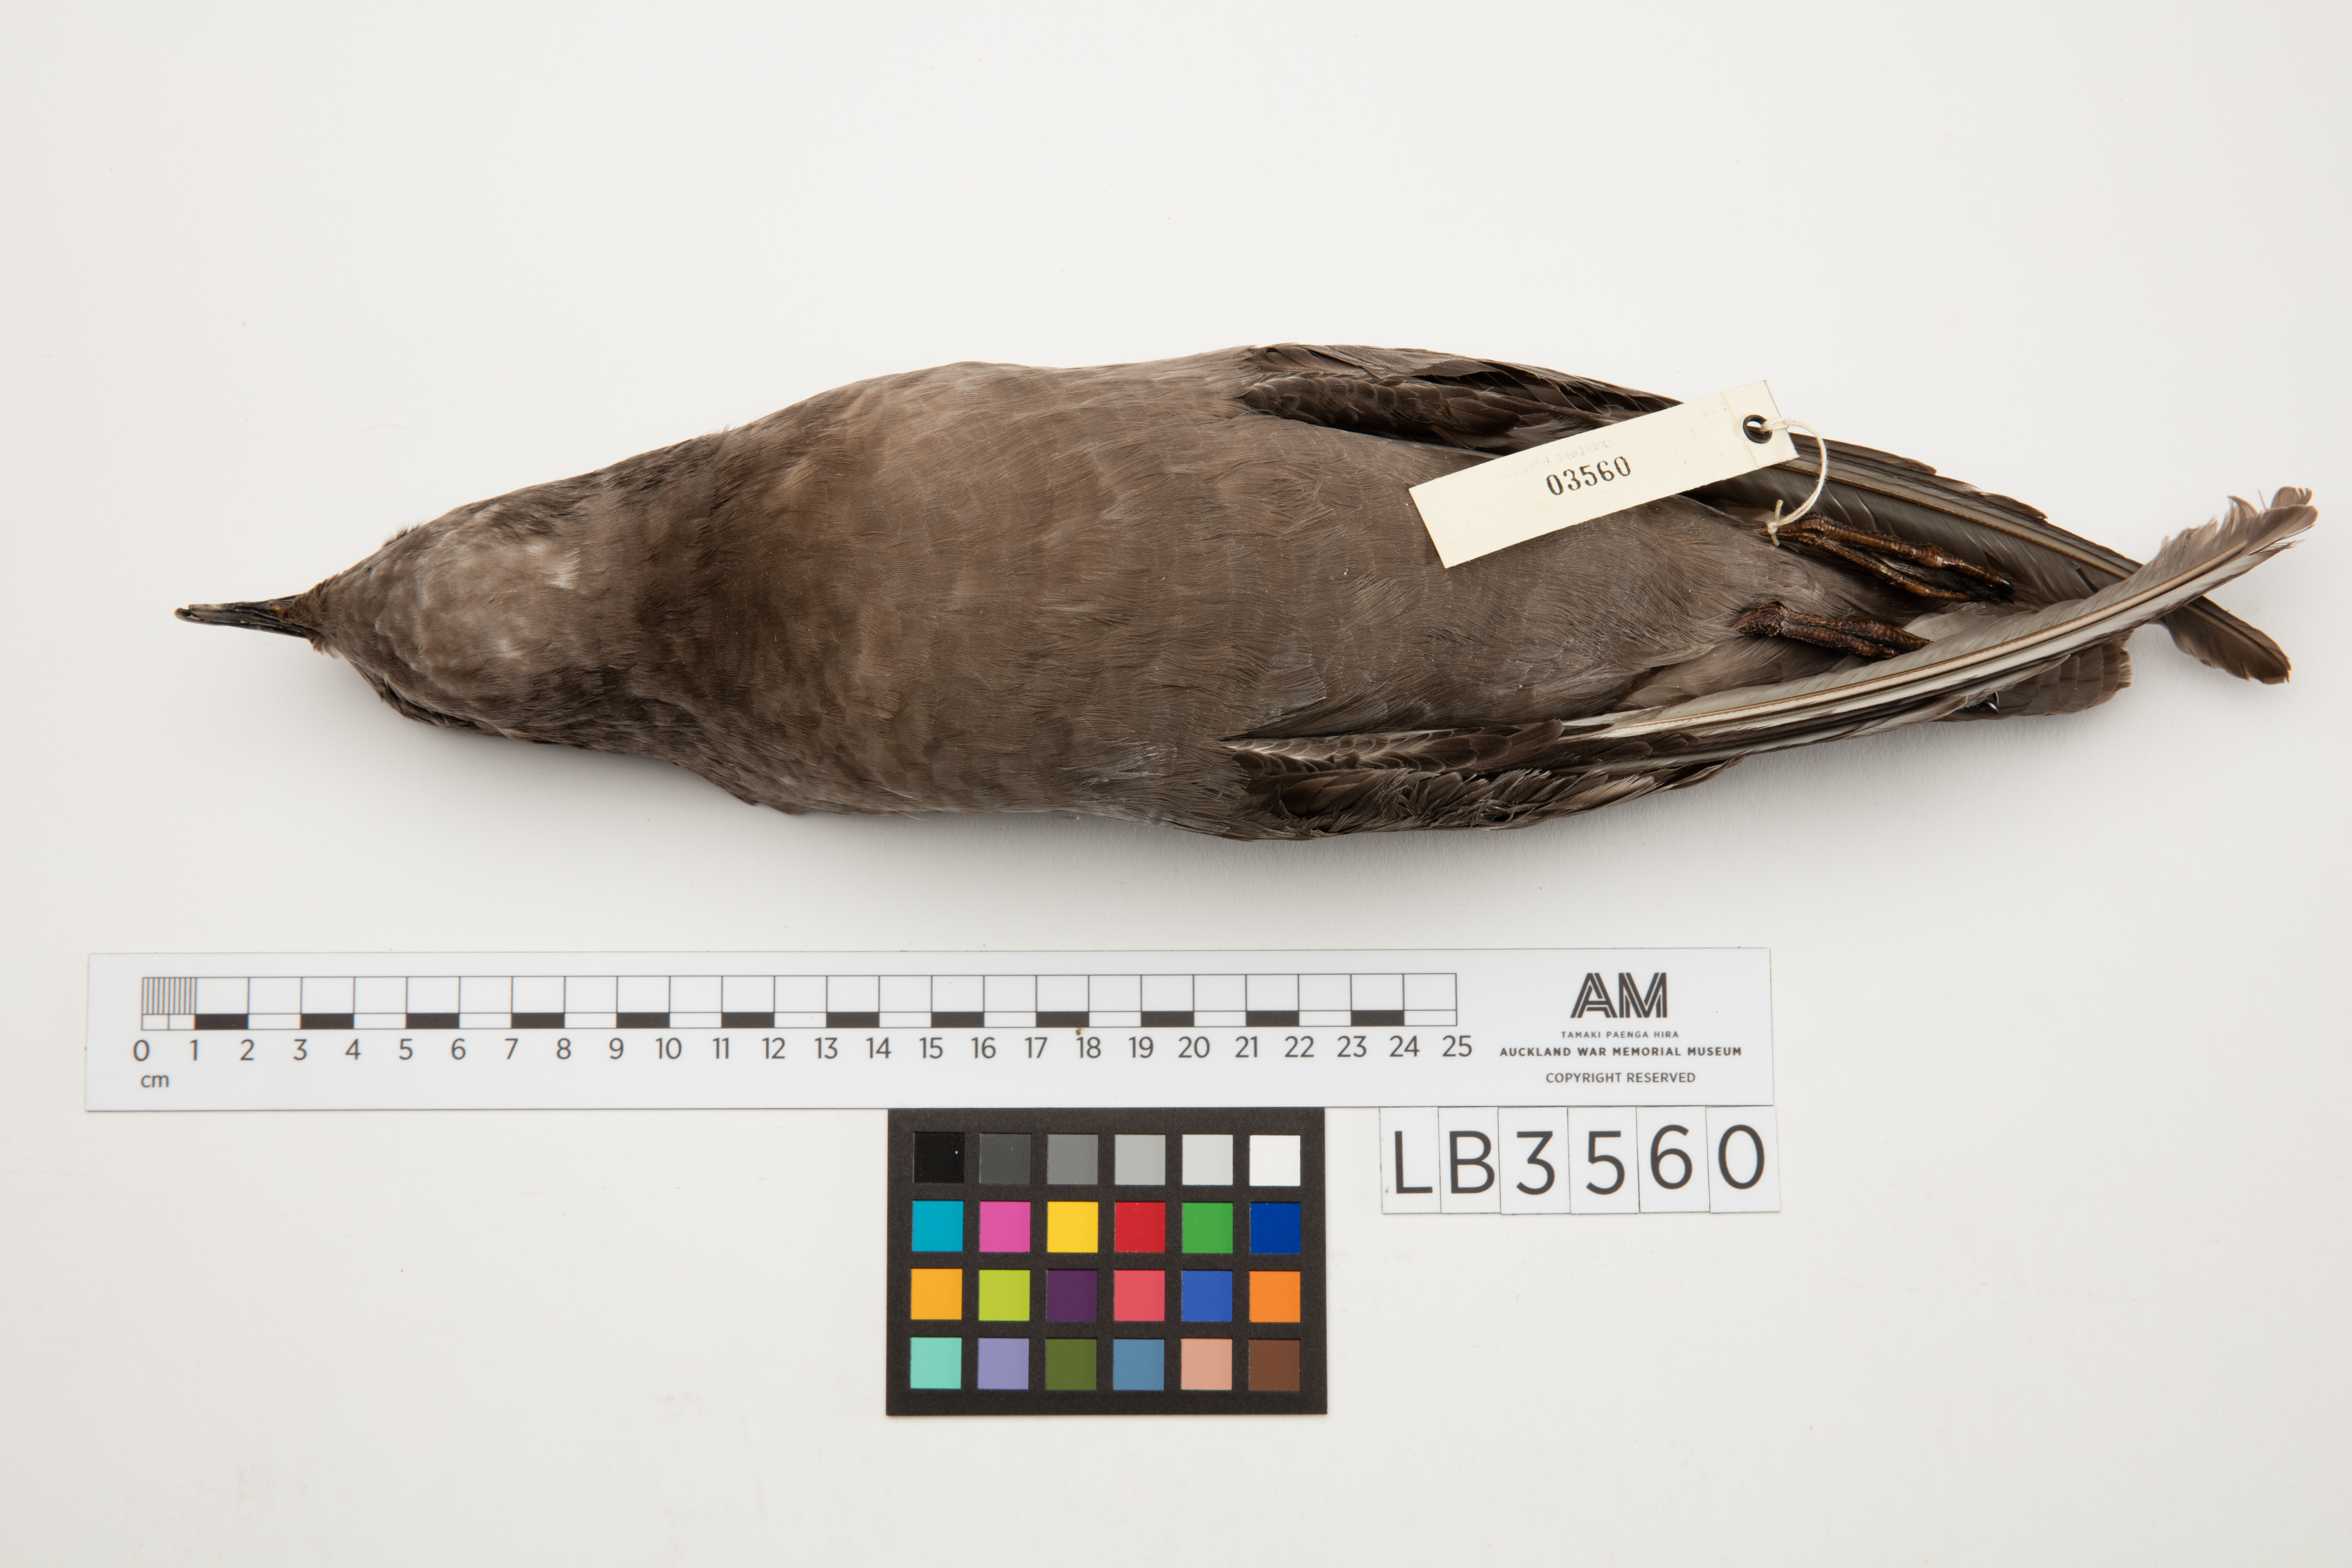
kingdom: Animalia
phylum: Chordata
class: Aves
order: Procellariiformes
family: Procellariidae
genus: Aphrodroma
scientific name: Aphrodroma brevirostris
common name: Kerguelen petrel
